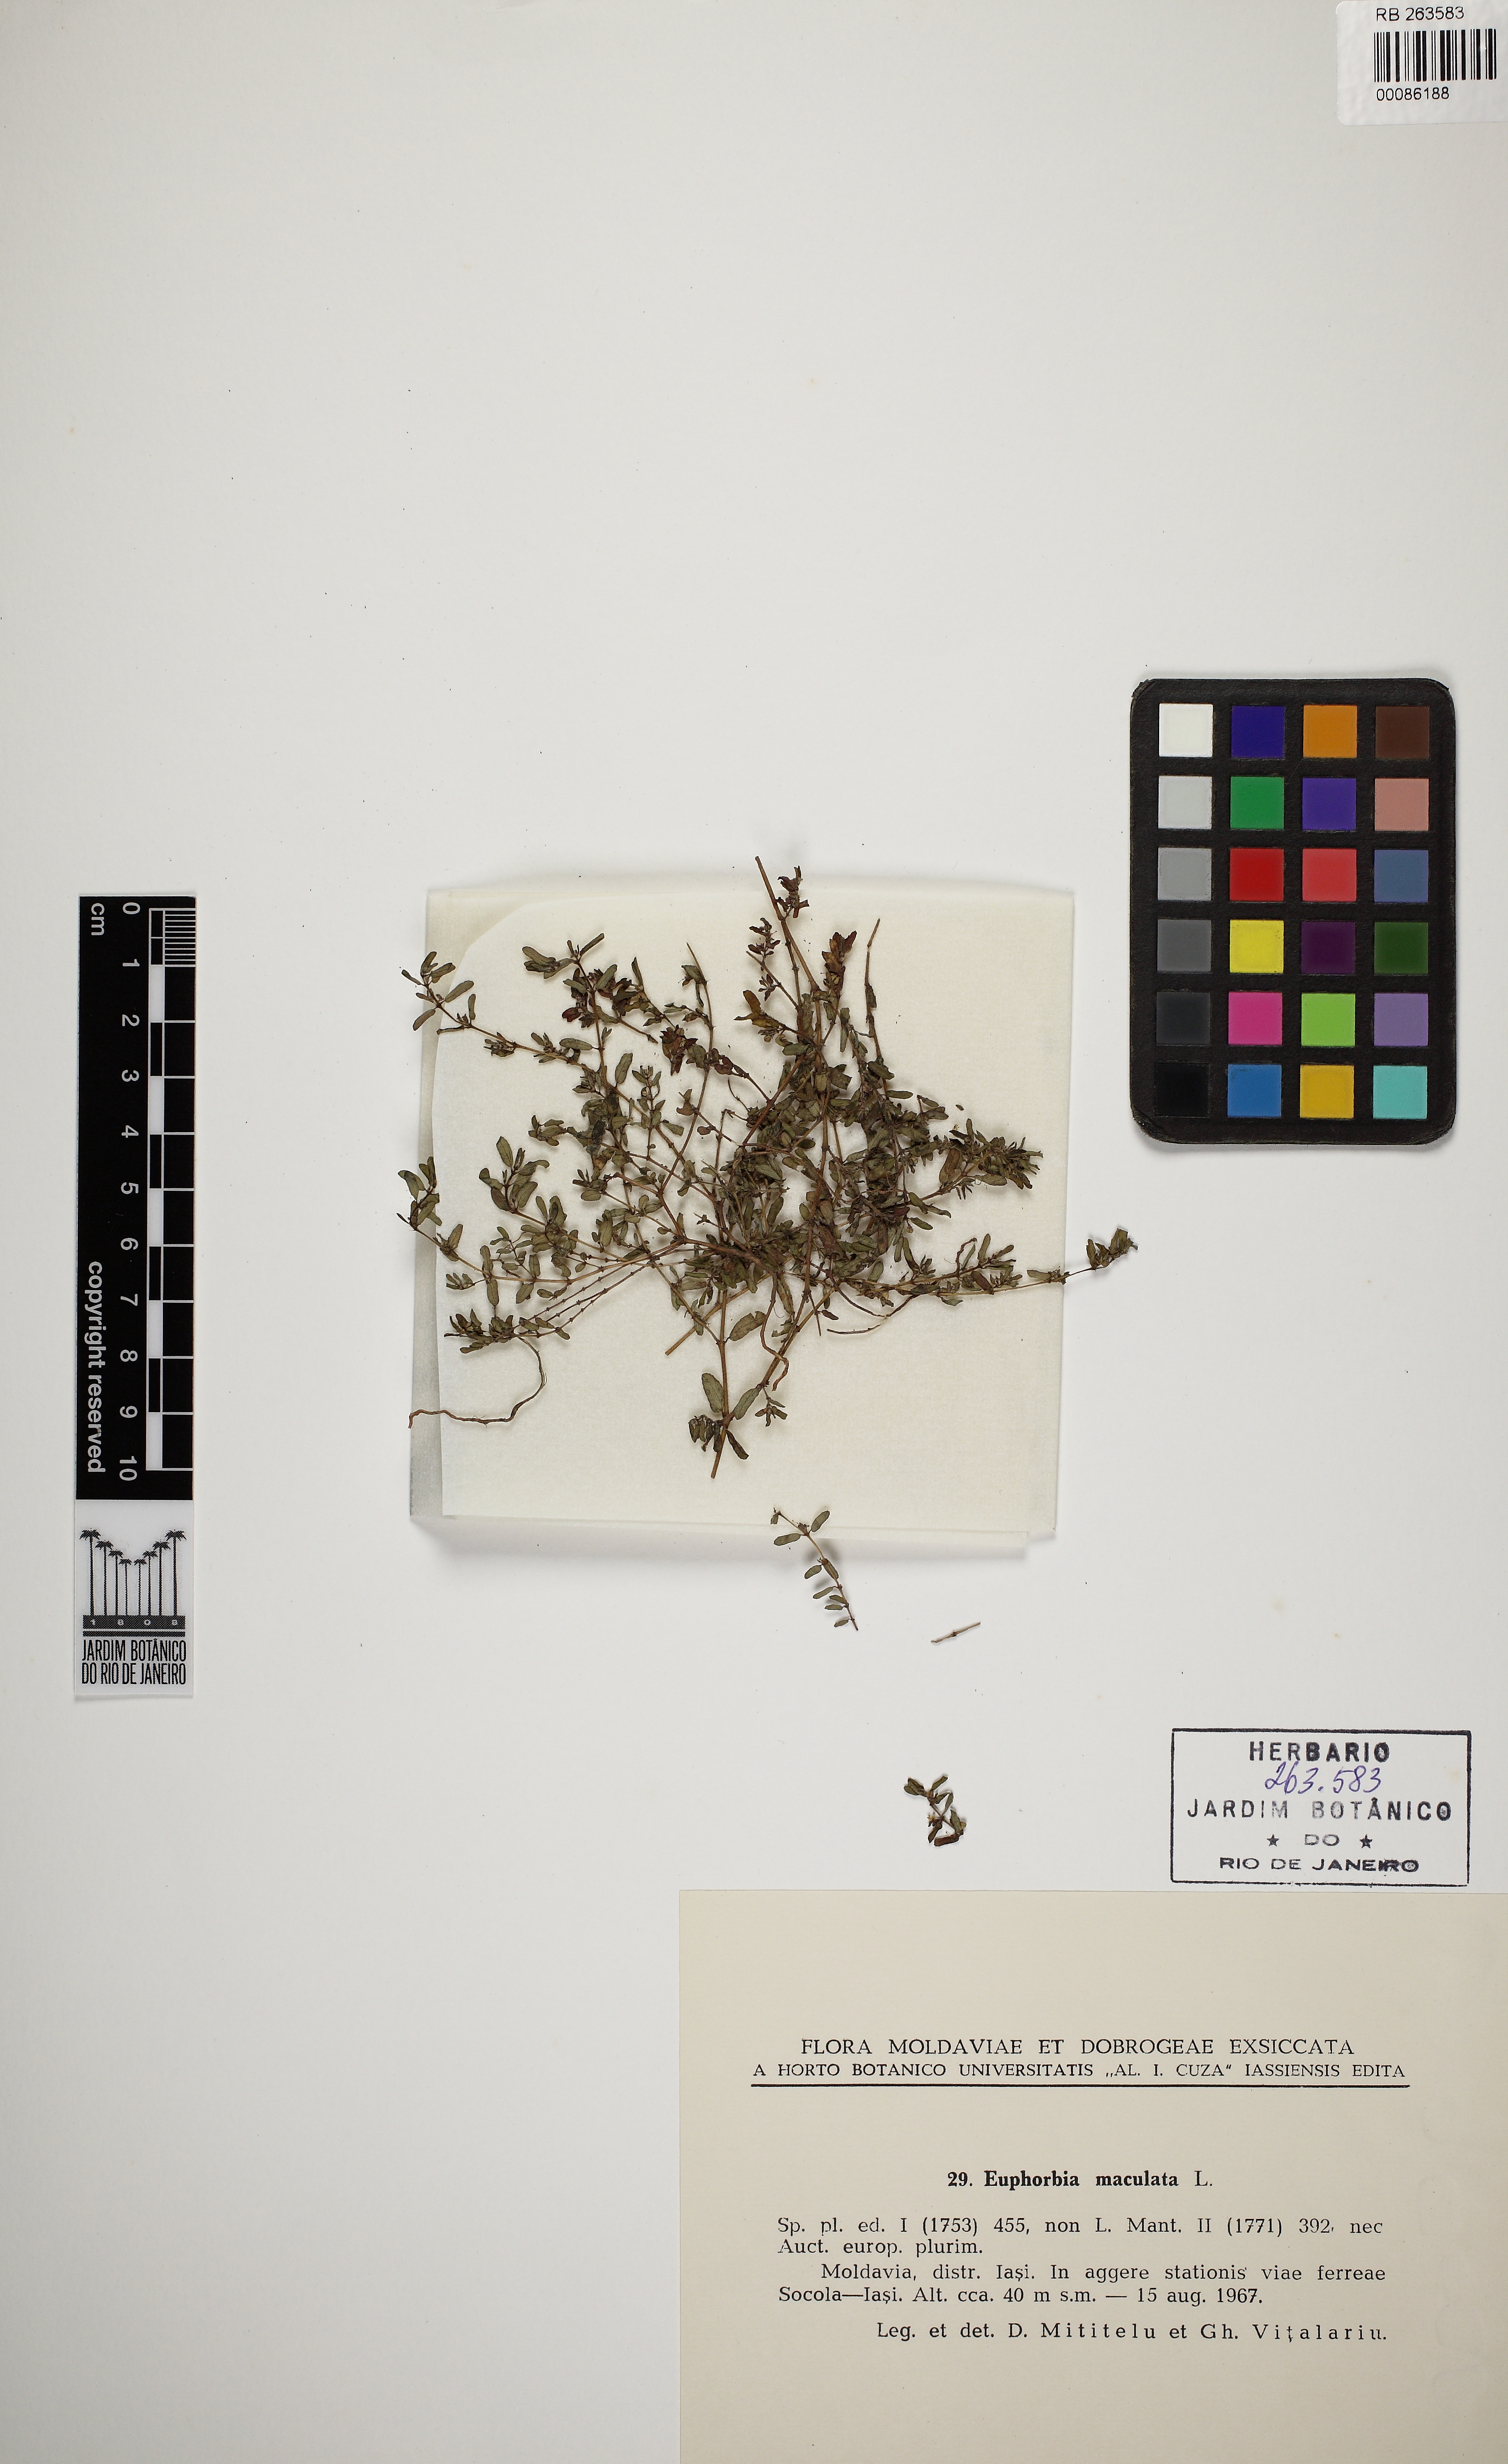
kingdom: Plantae
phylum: Tracheophyta
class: Magnoliopsida
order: Malpighiales
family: Euphorbiaceae
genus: Euphorbia
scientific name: Euphorbia maculata
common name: Spotted spurge
